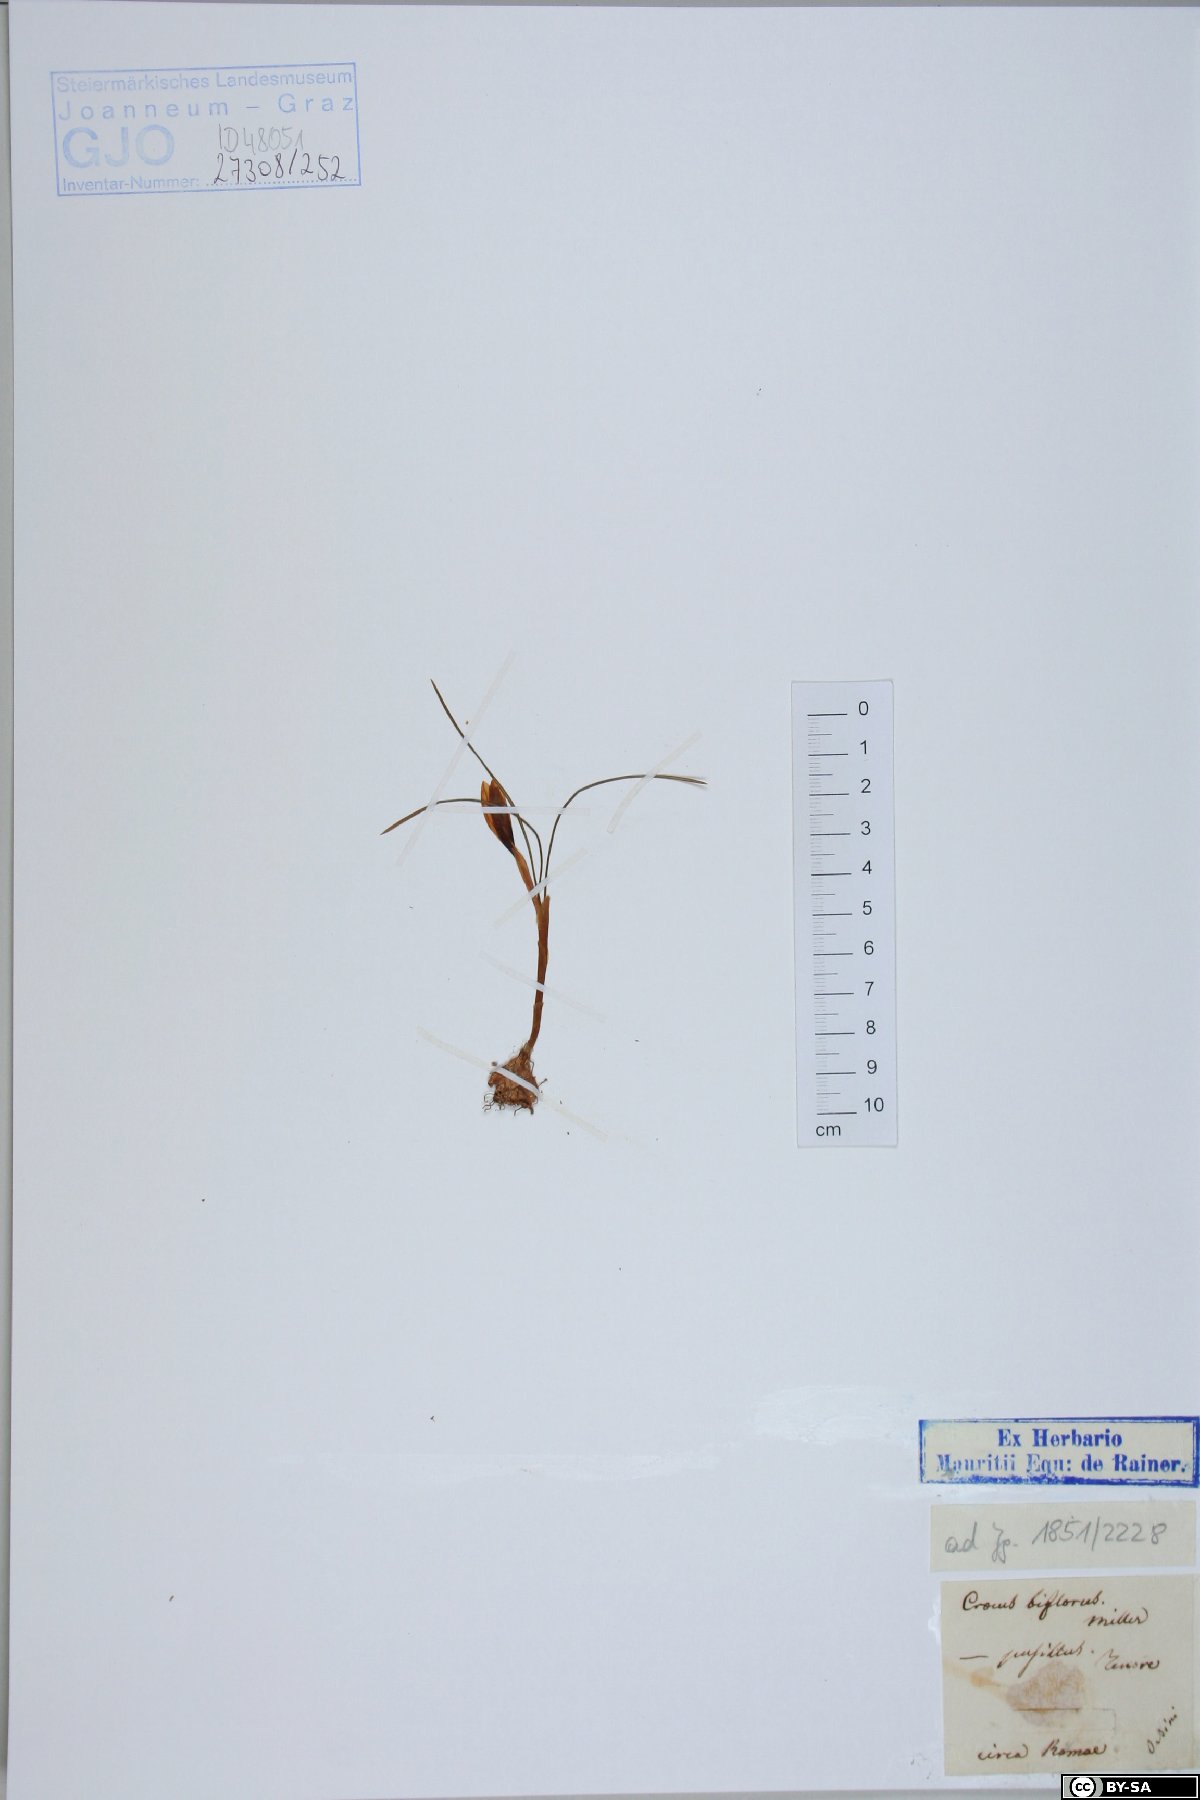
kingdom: Plantae
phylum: Tracheophyta
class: Liliopsida
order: Asparagales
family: Iridaceae
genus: Crocus
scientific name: Crocus biflorus
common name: Silvery crocus
